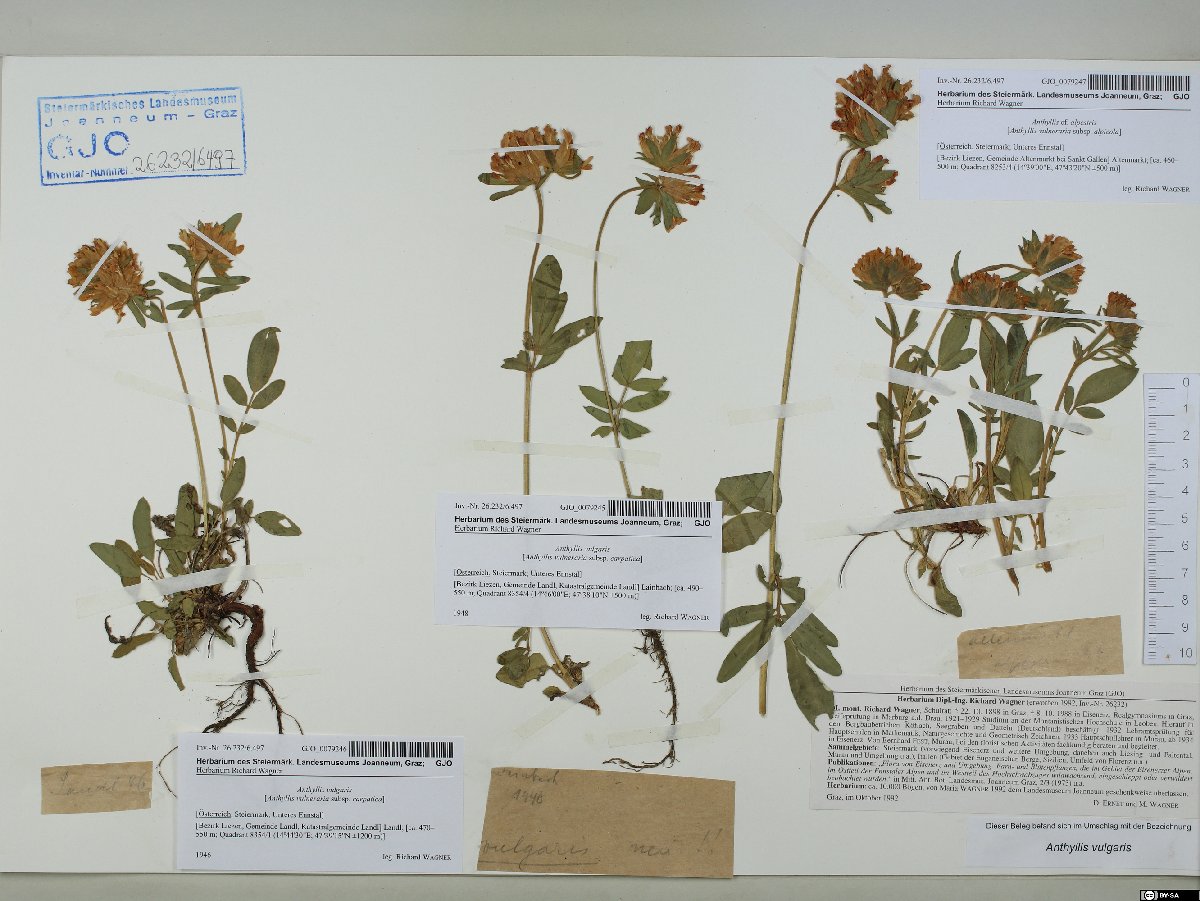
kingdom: Plantae
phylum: Tracheophyta
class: Magnoliopsida
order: Fabales
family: Fabaceae
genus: Anthyllis
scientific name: Anthyllis vulneraria
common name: Kidney vetch
